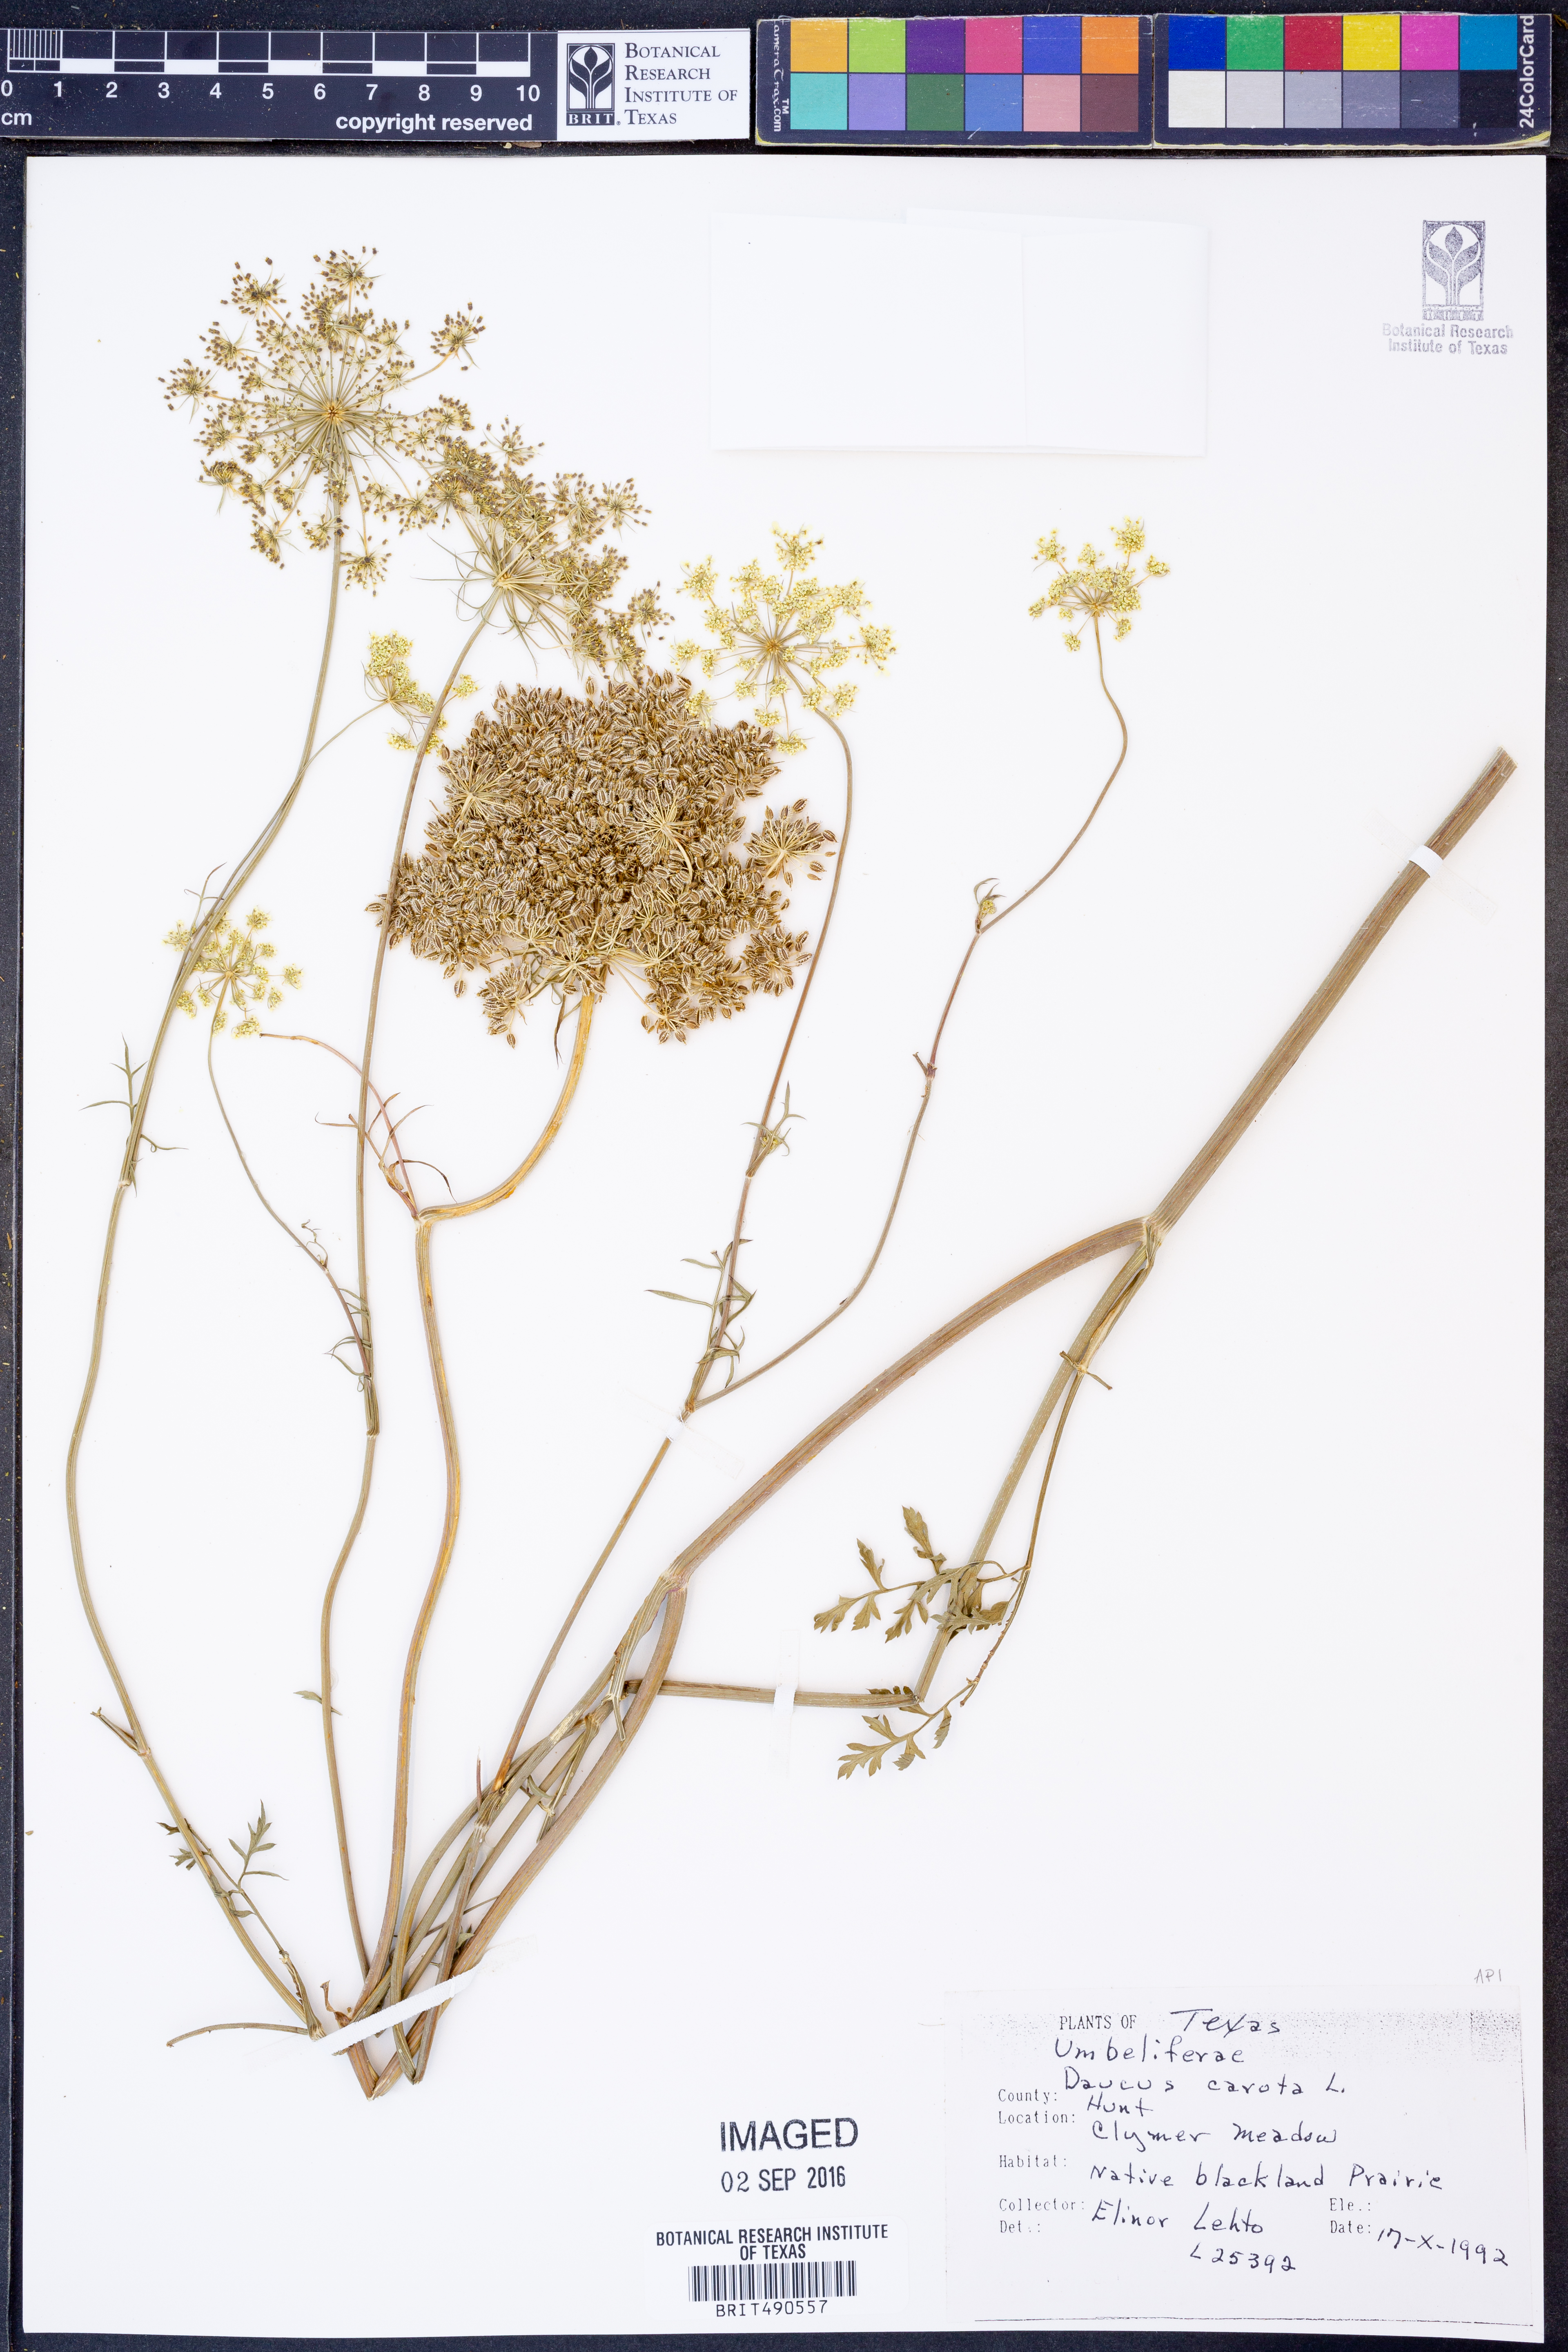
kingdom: Plantae
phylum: Tracheophyta
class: Magnoliopsida
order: Apiales
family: Apiaceae
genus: Daucus
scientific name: Daucus carota
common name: Wild carrot
